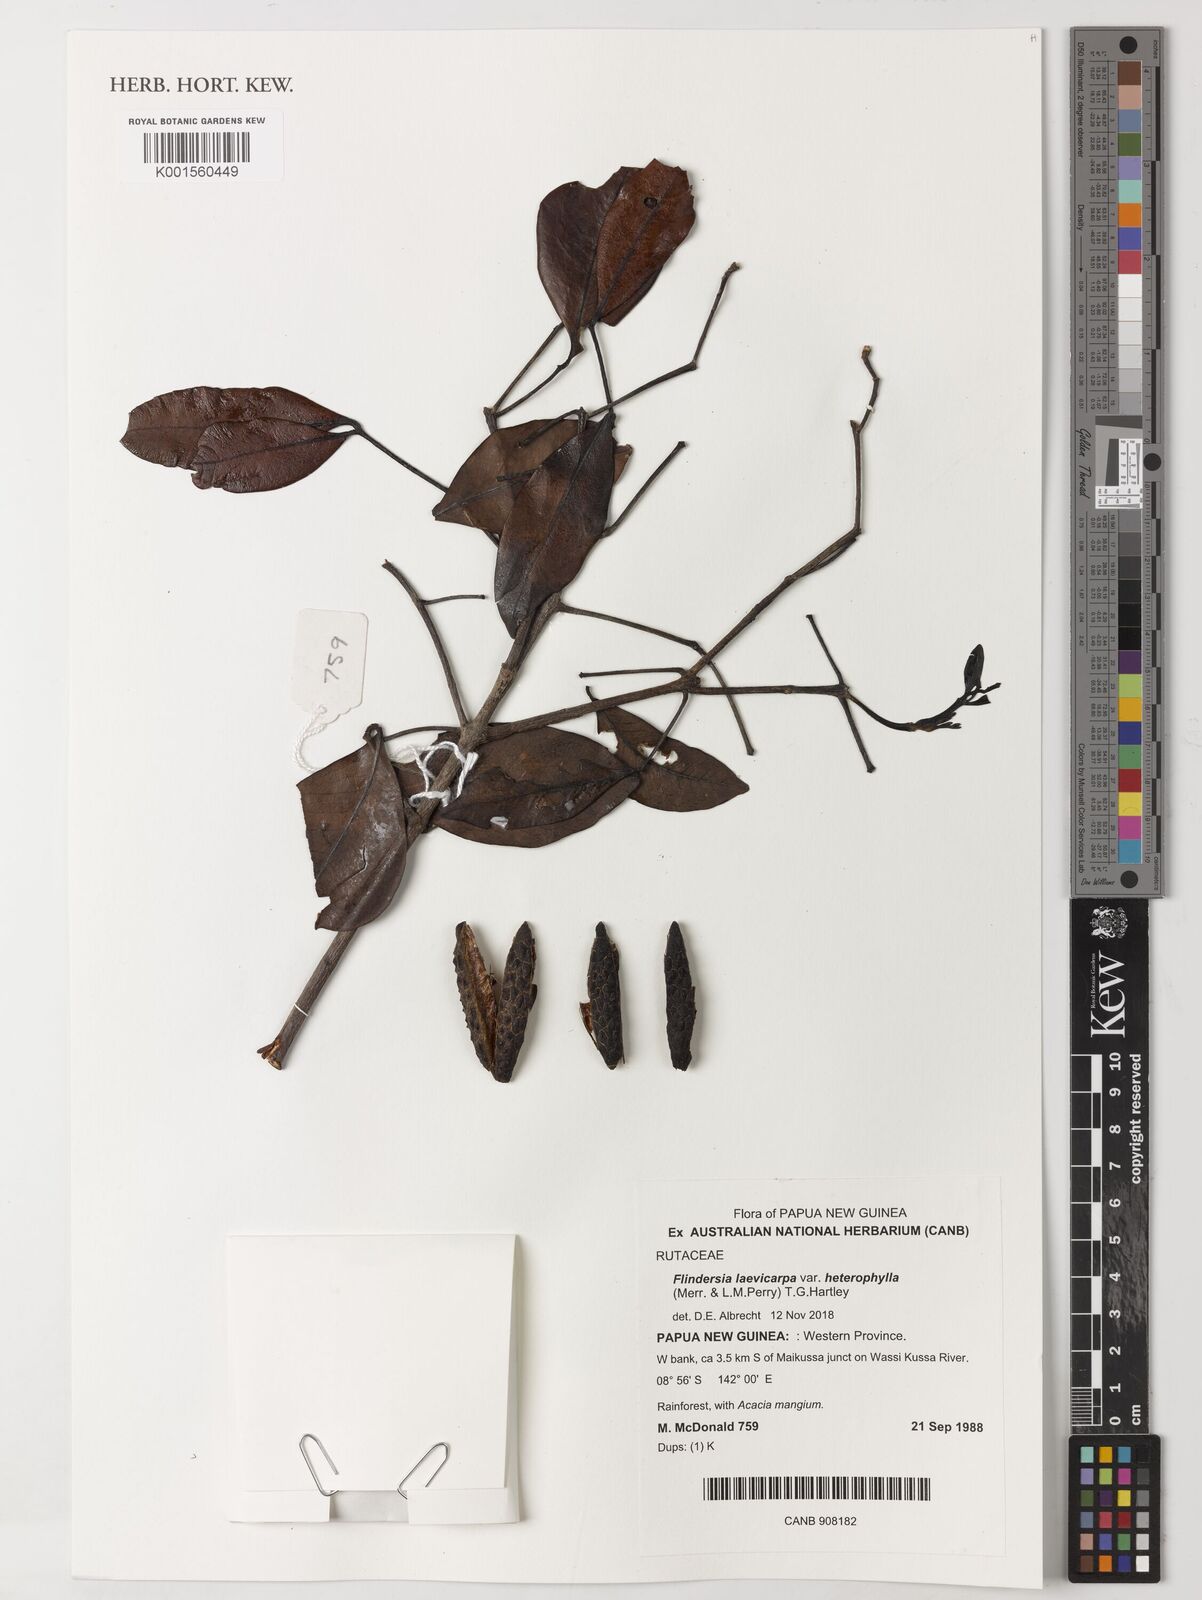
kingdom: Plantae
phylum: Tracheophyta
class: Magnoliopsida
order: Sapindales
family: Rutaceae
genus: Flindersia
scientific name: Flindersia laevicarpa
